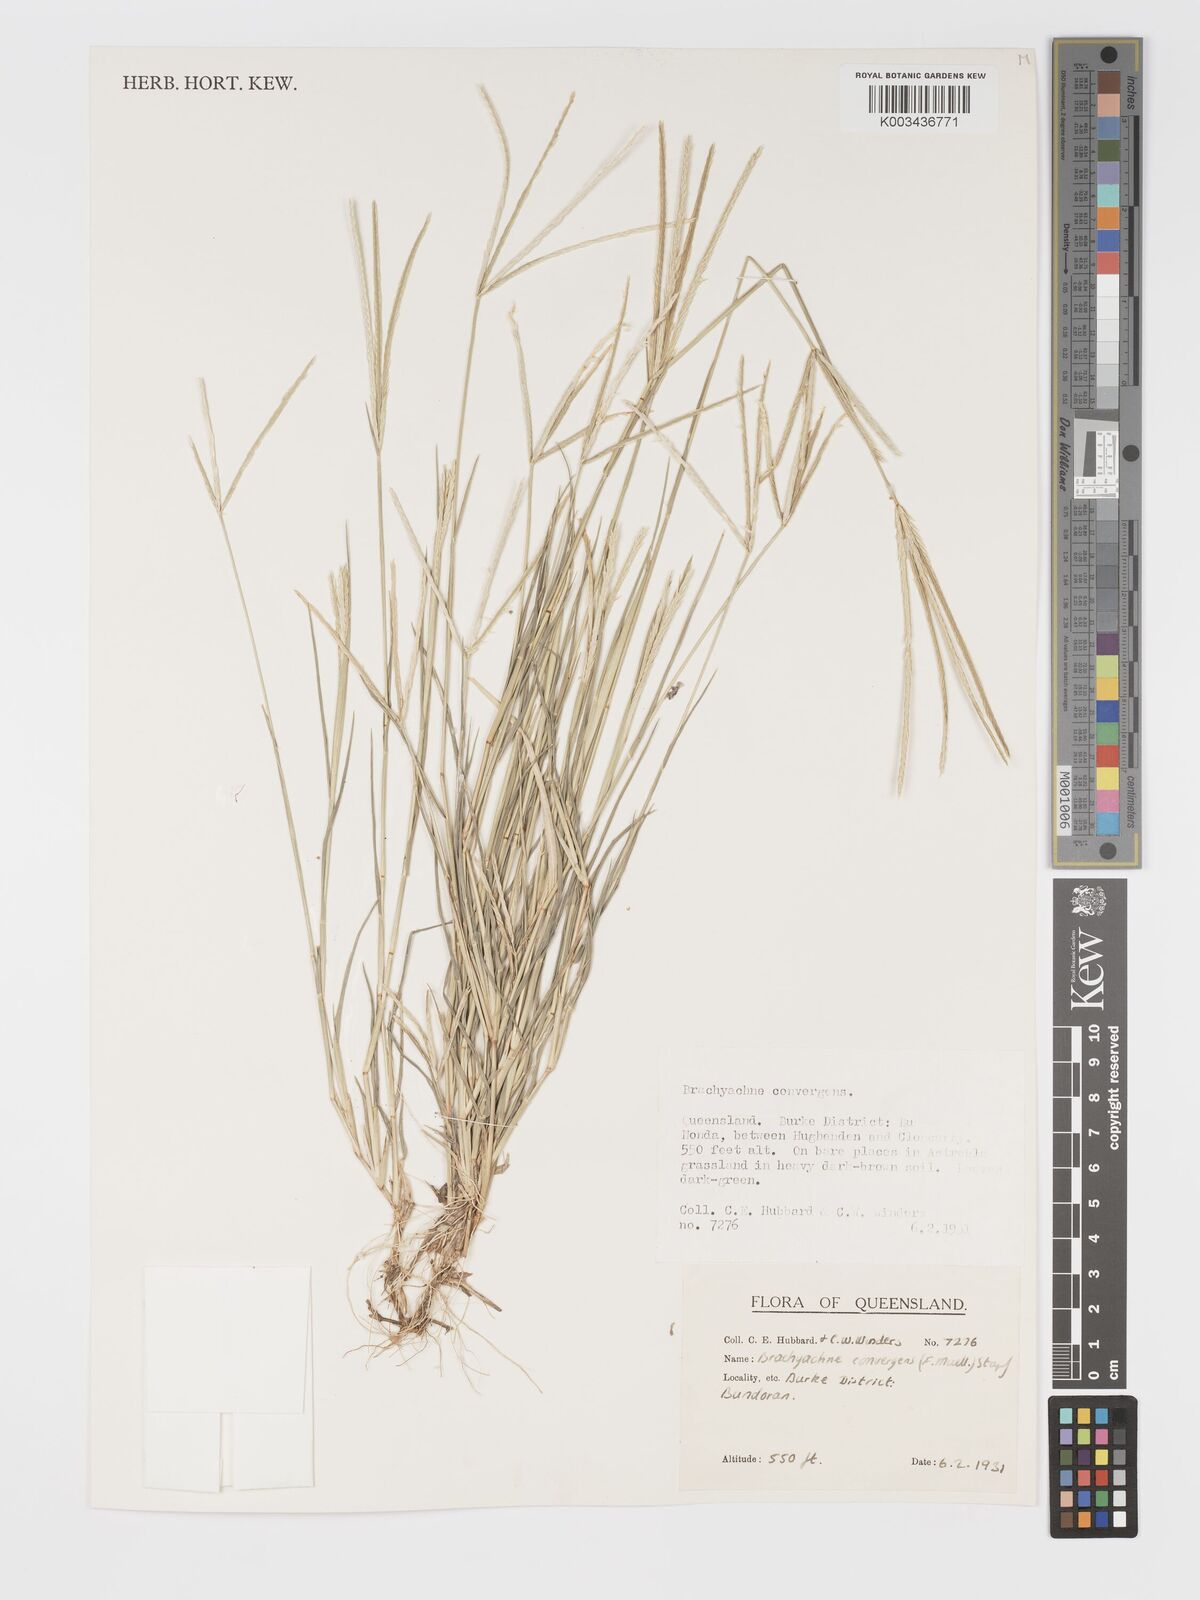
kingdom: Plantae
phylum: Tracheophyta
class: Liliopsida
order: Poales
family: Poaceae
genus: Cynodon
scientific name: Cynodon convergens
